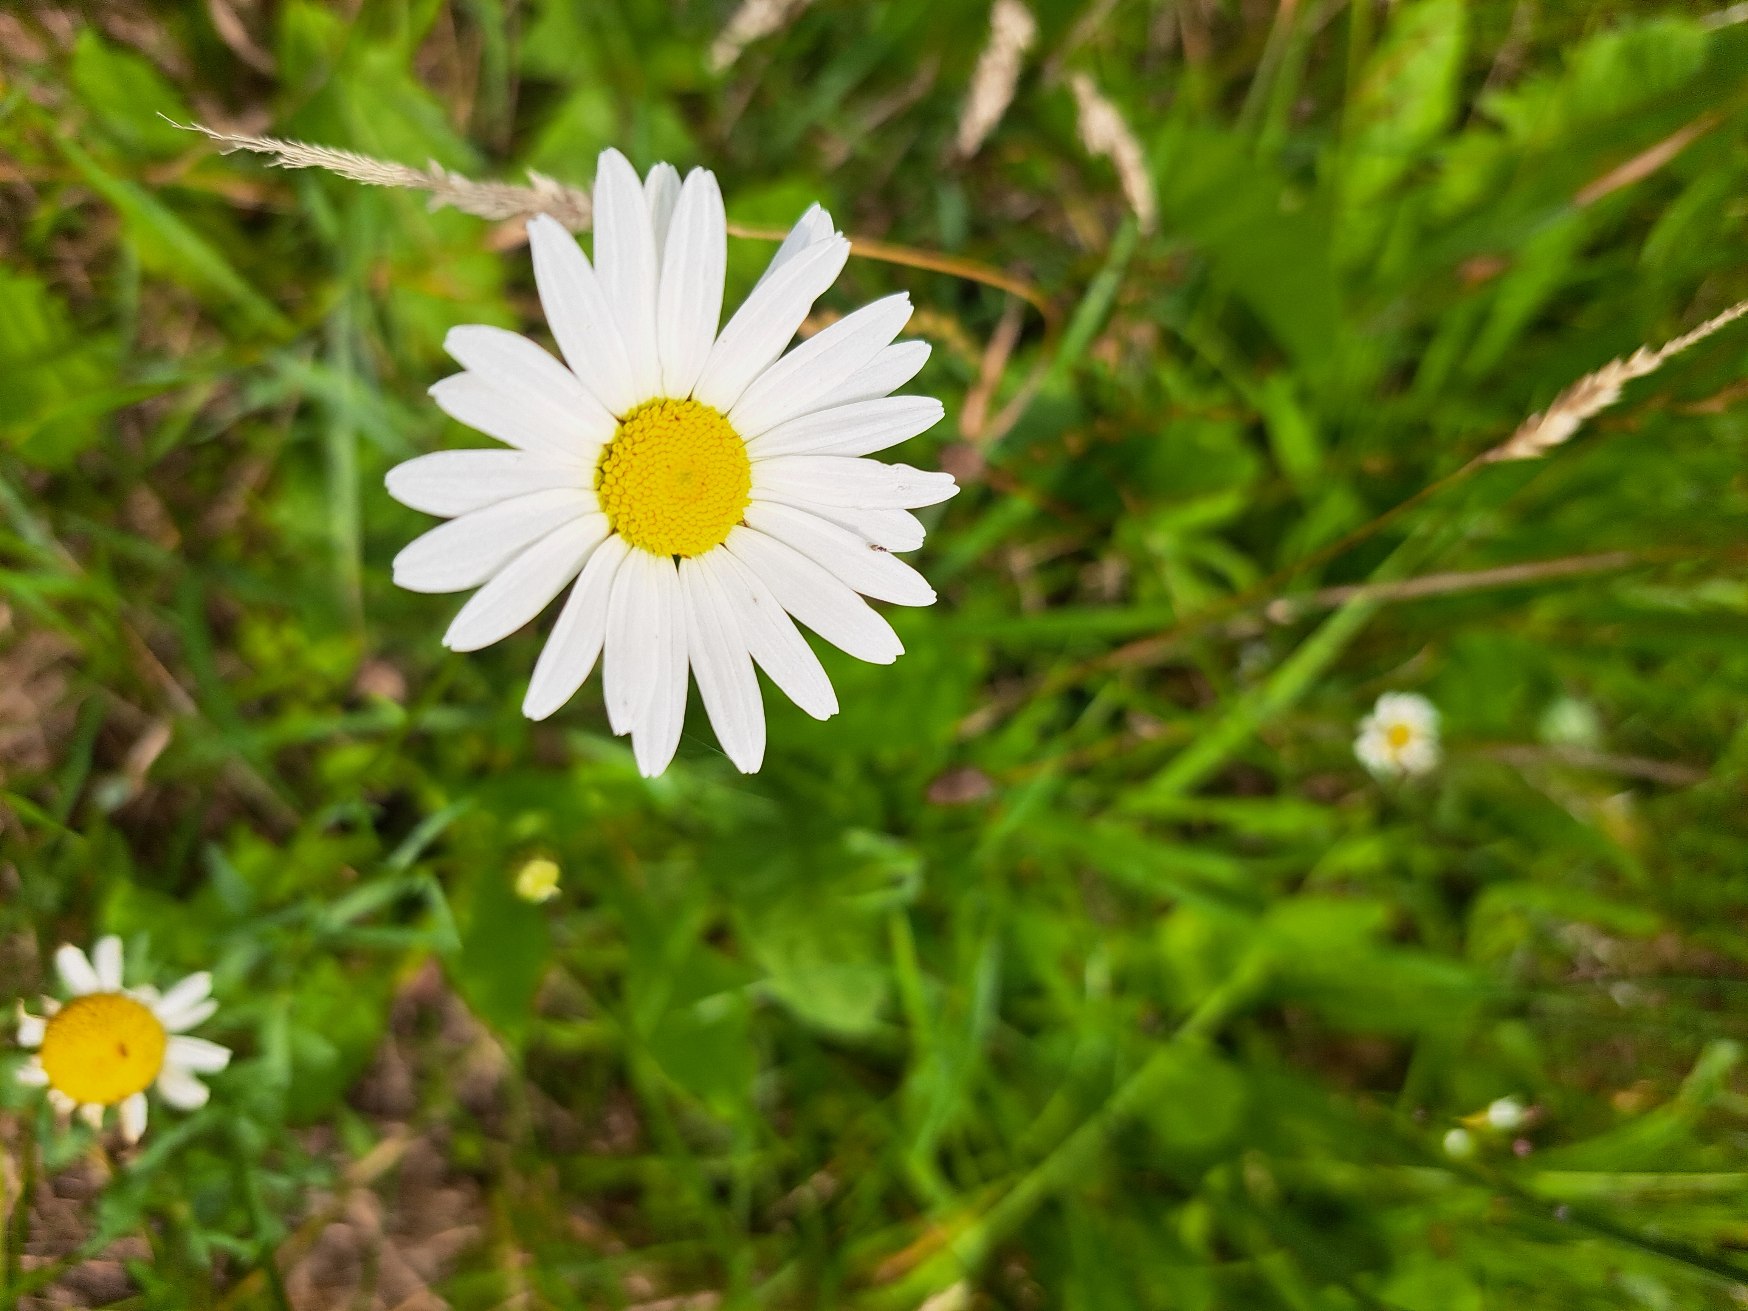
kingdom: Plantae
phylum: Tracheophyta
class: Magnoliopsida
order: Asterales
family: Asteraceae
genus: Leucanthemum
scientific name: Leucanthemum vulgare
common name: Hvid okseøje
